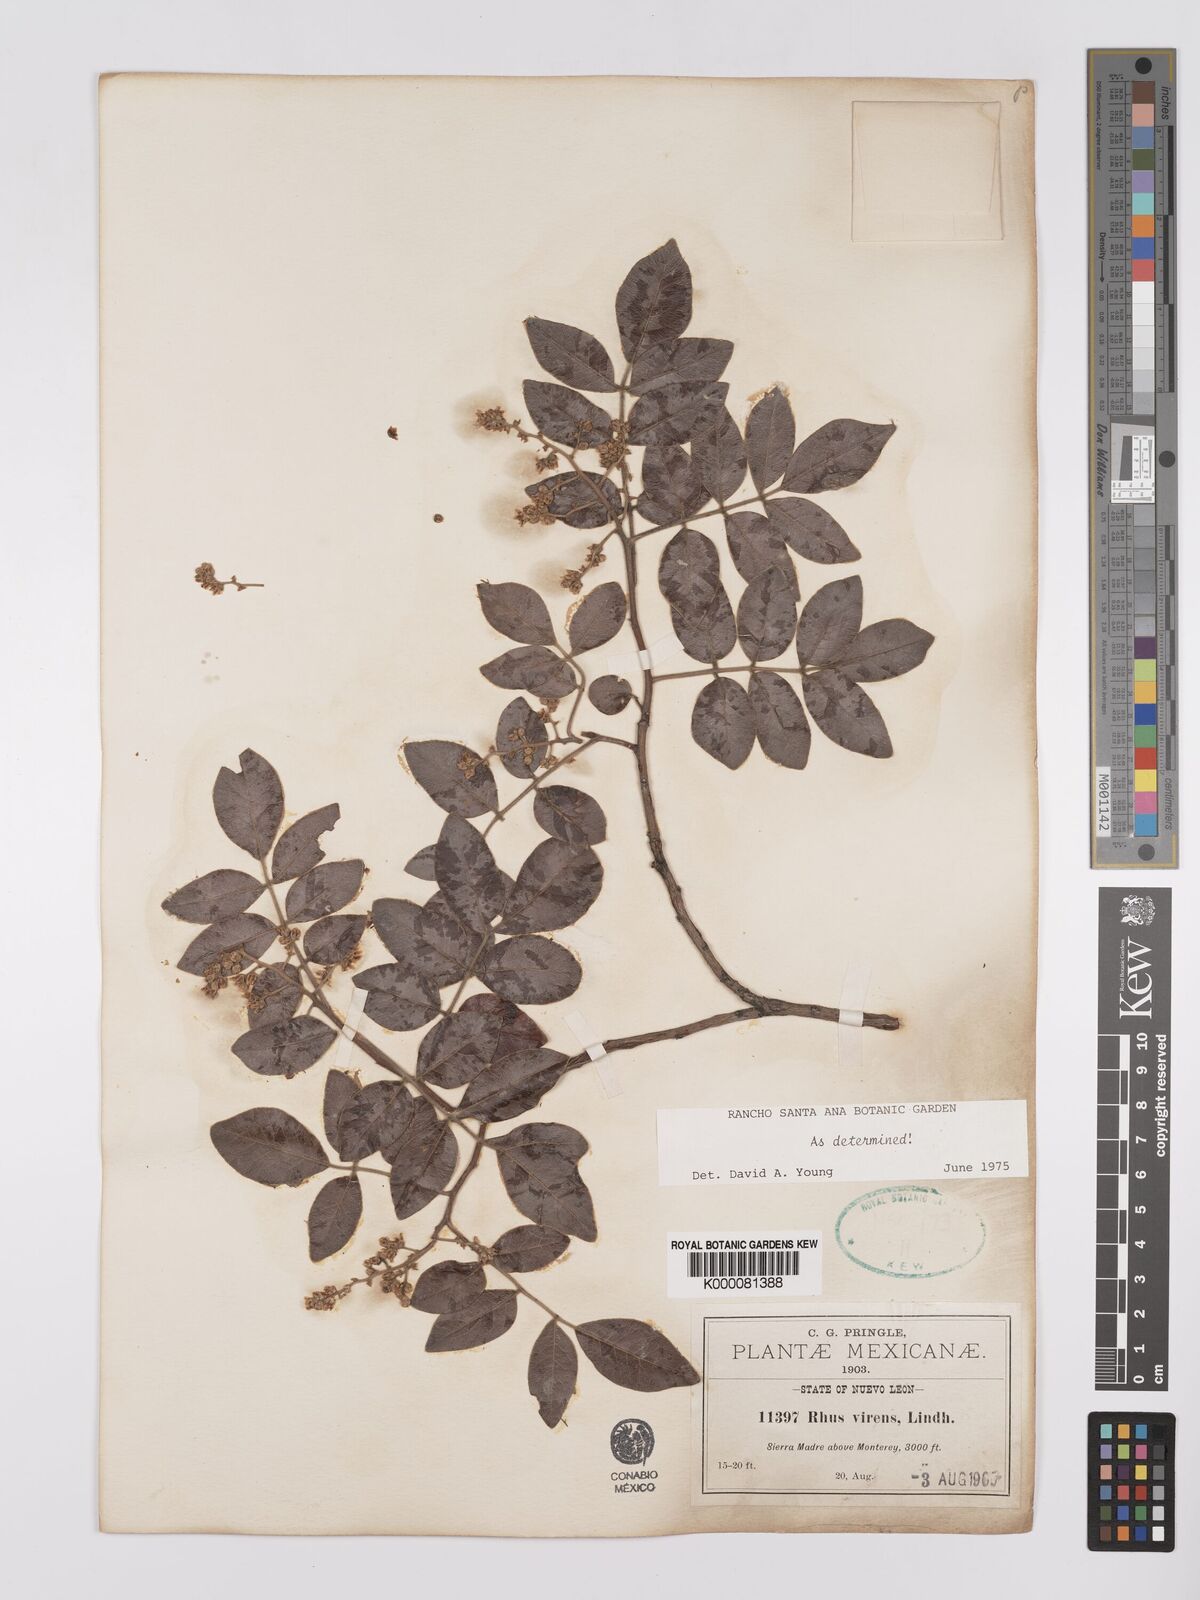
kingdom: Plantae
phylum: Tracheophyta
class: Magnoliopsida
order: Sapindales
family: Anacardiaceae
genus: Rhus
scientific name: Rhus virens
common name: Evergreen sumac
